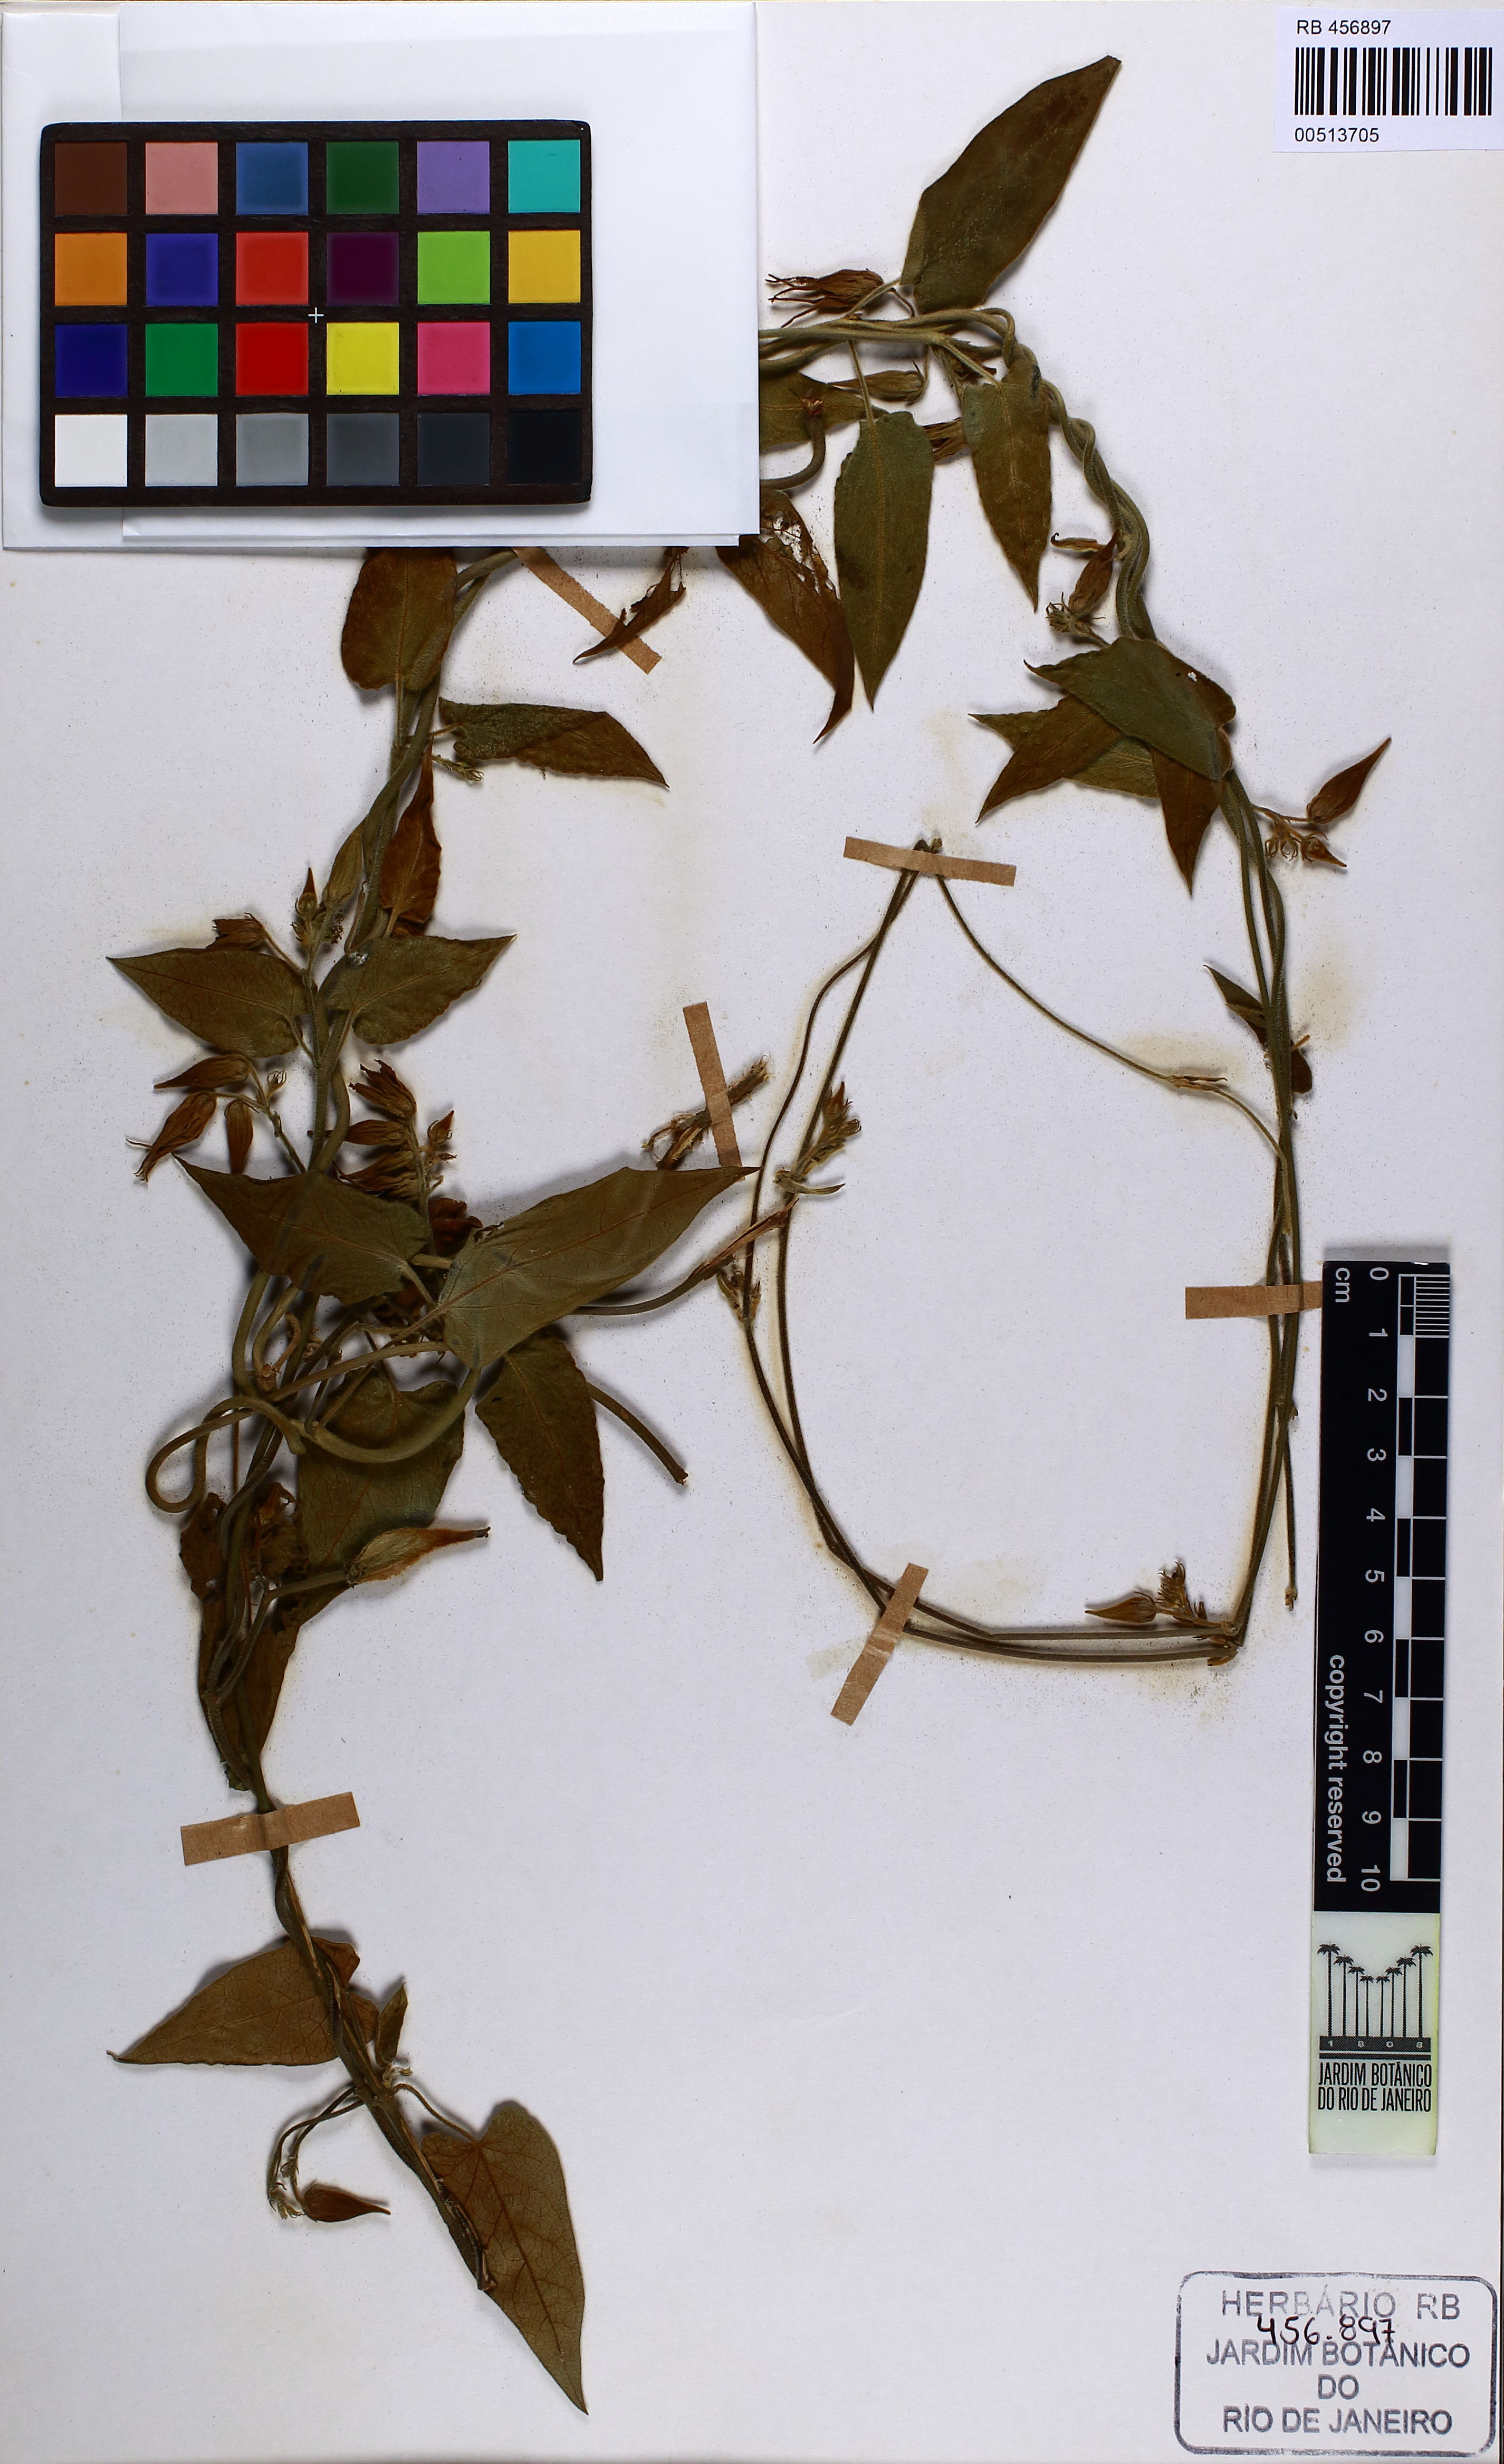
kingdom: Plantae
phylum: Tracheophyta
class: Magnoliopsida
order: Gentianales
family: Apocynaceae
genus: Oxypetalum
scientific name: Oxypetalum appendiculatum
